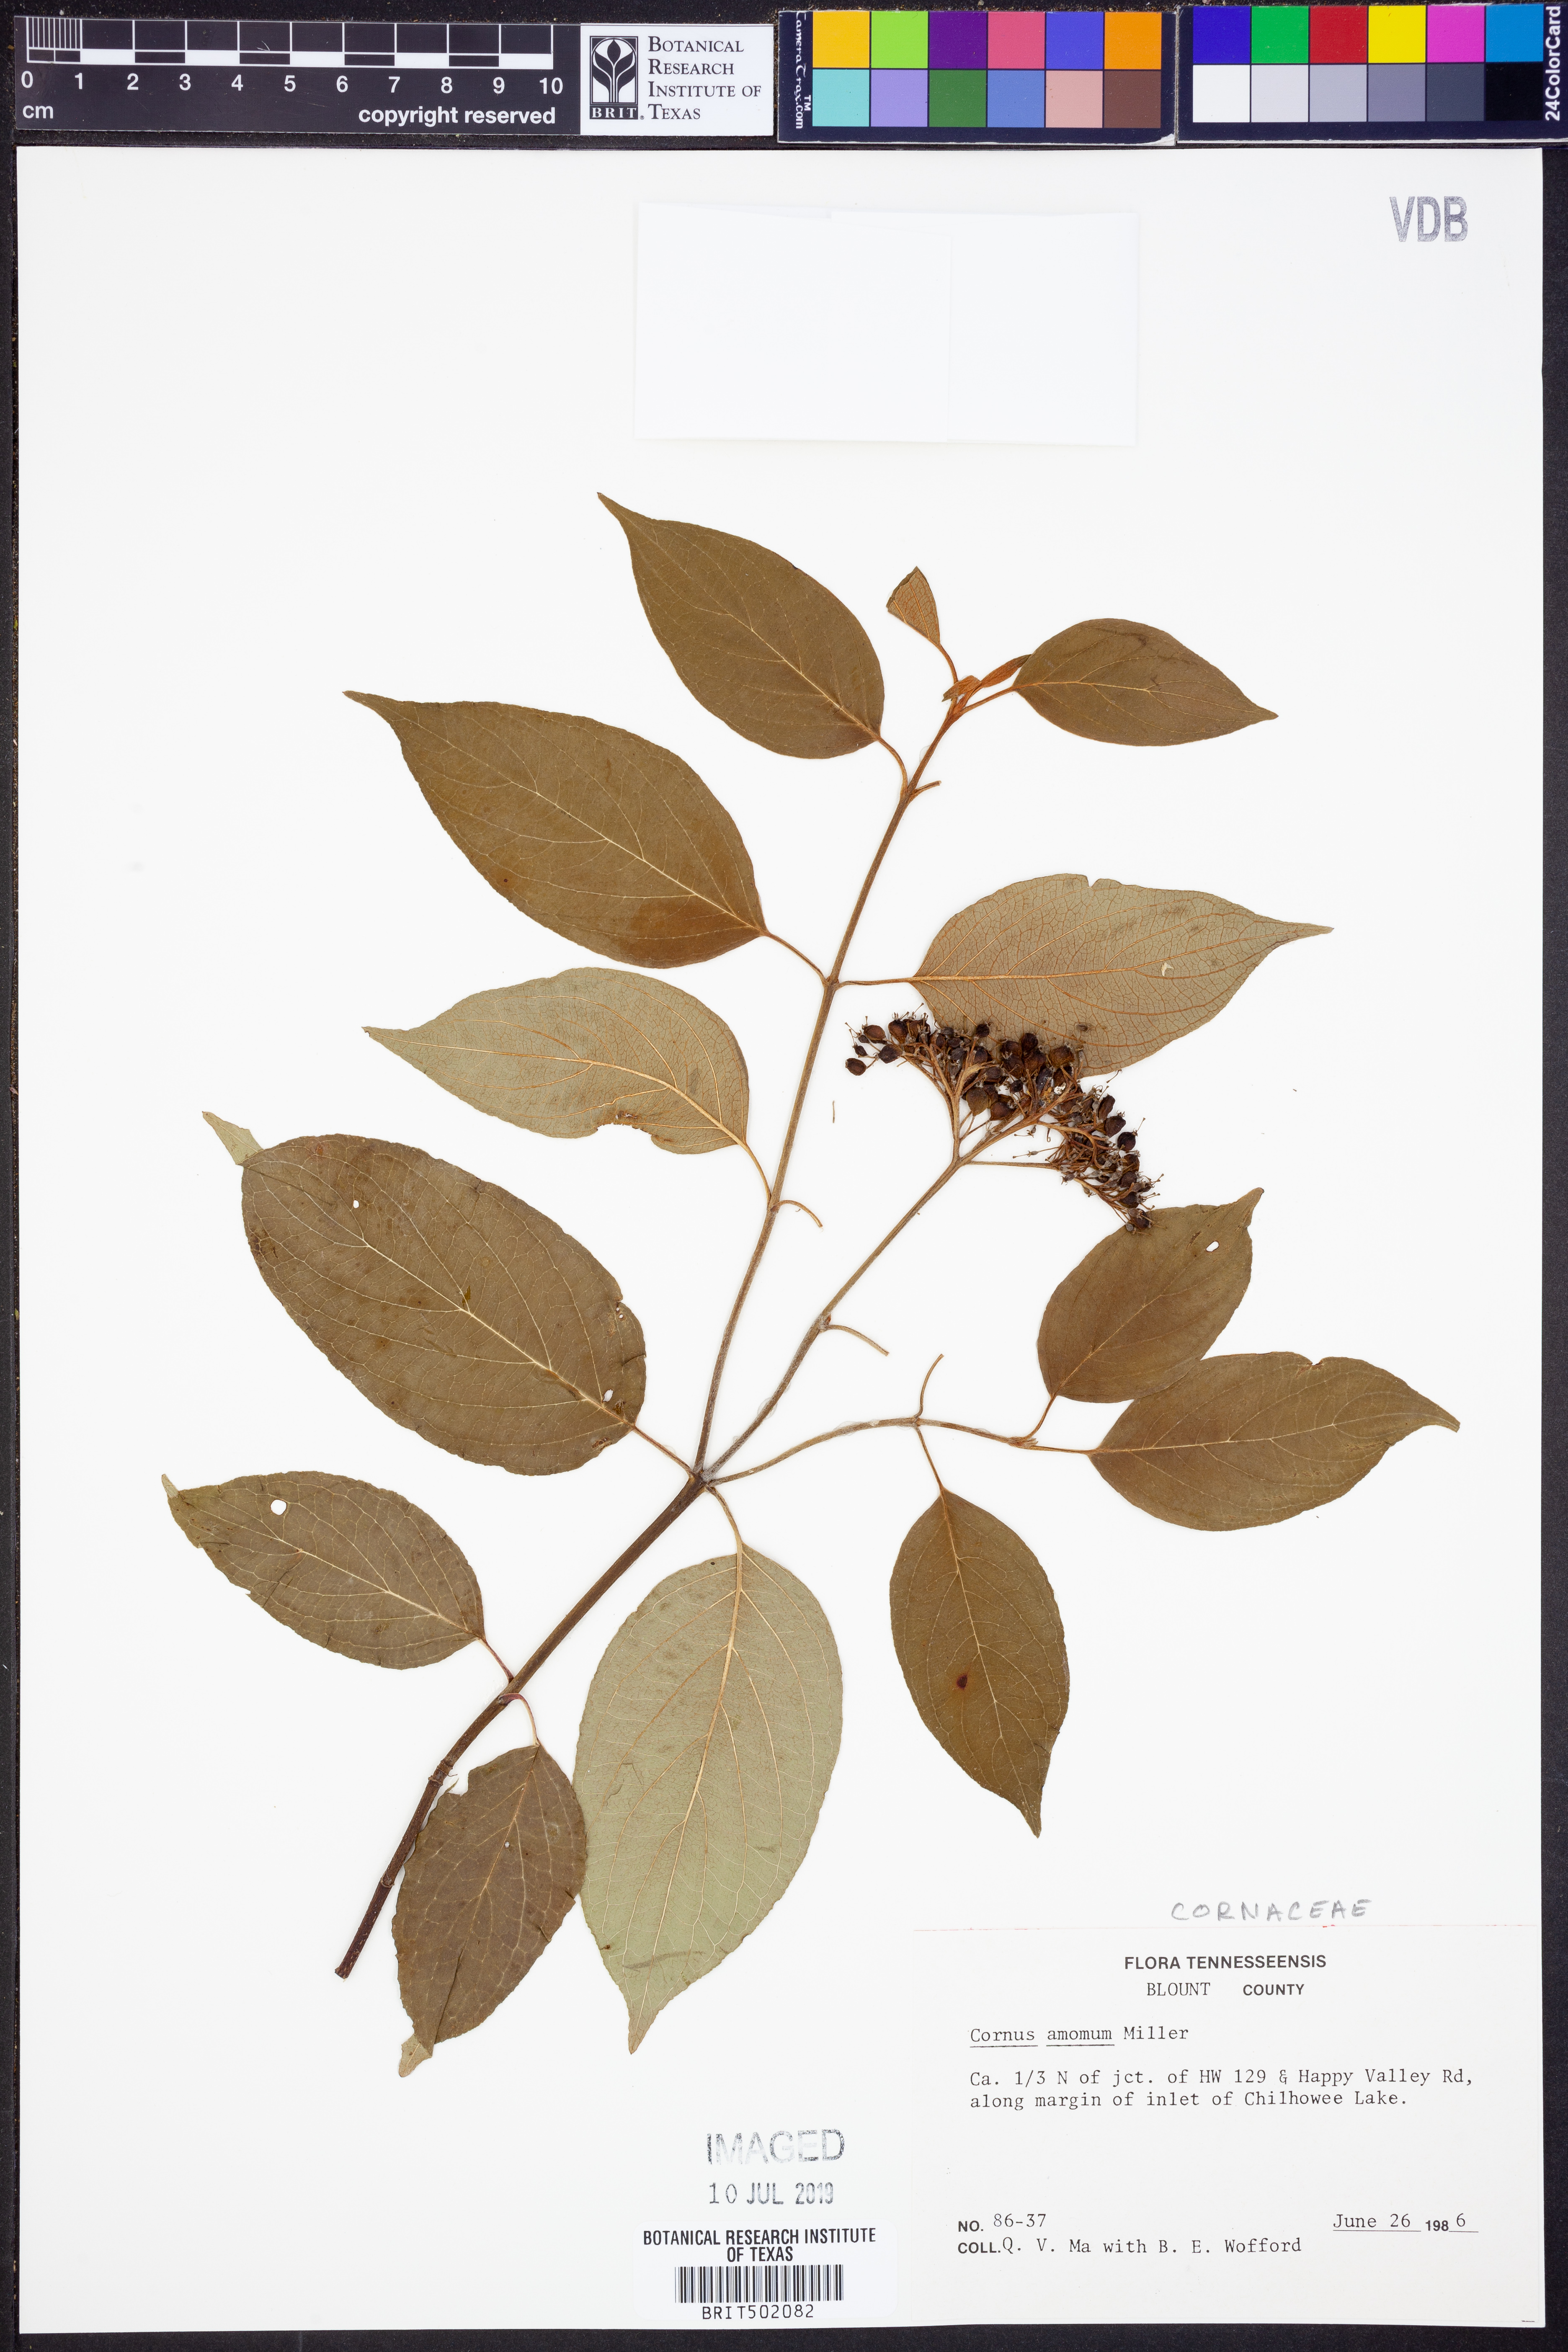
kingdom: Plantae
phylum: Tracheophyta
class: Magnoliopsida
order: Cornales
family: Cornaceae
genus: Cornus
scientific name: Cornus amomum
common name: Silky dogwood
